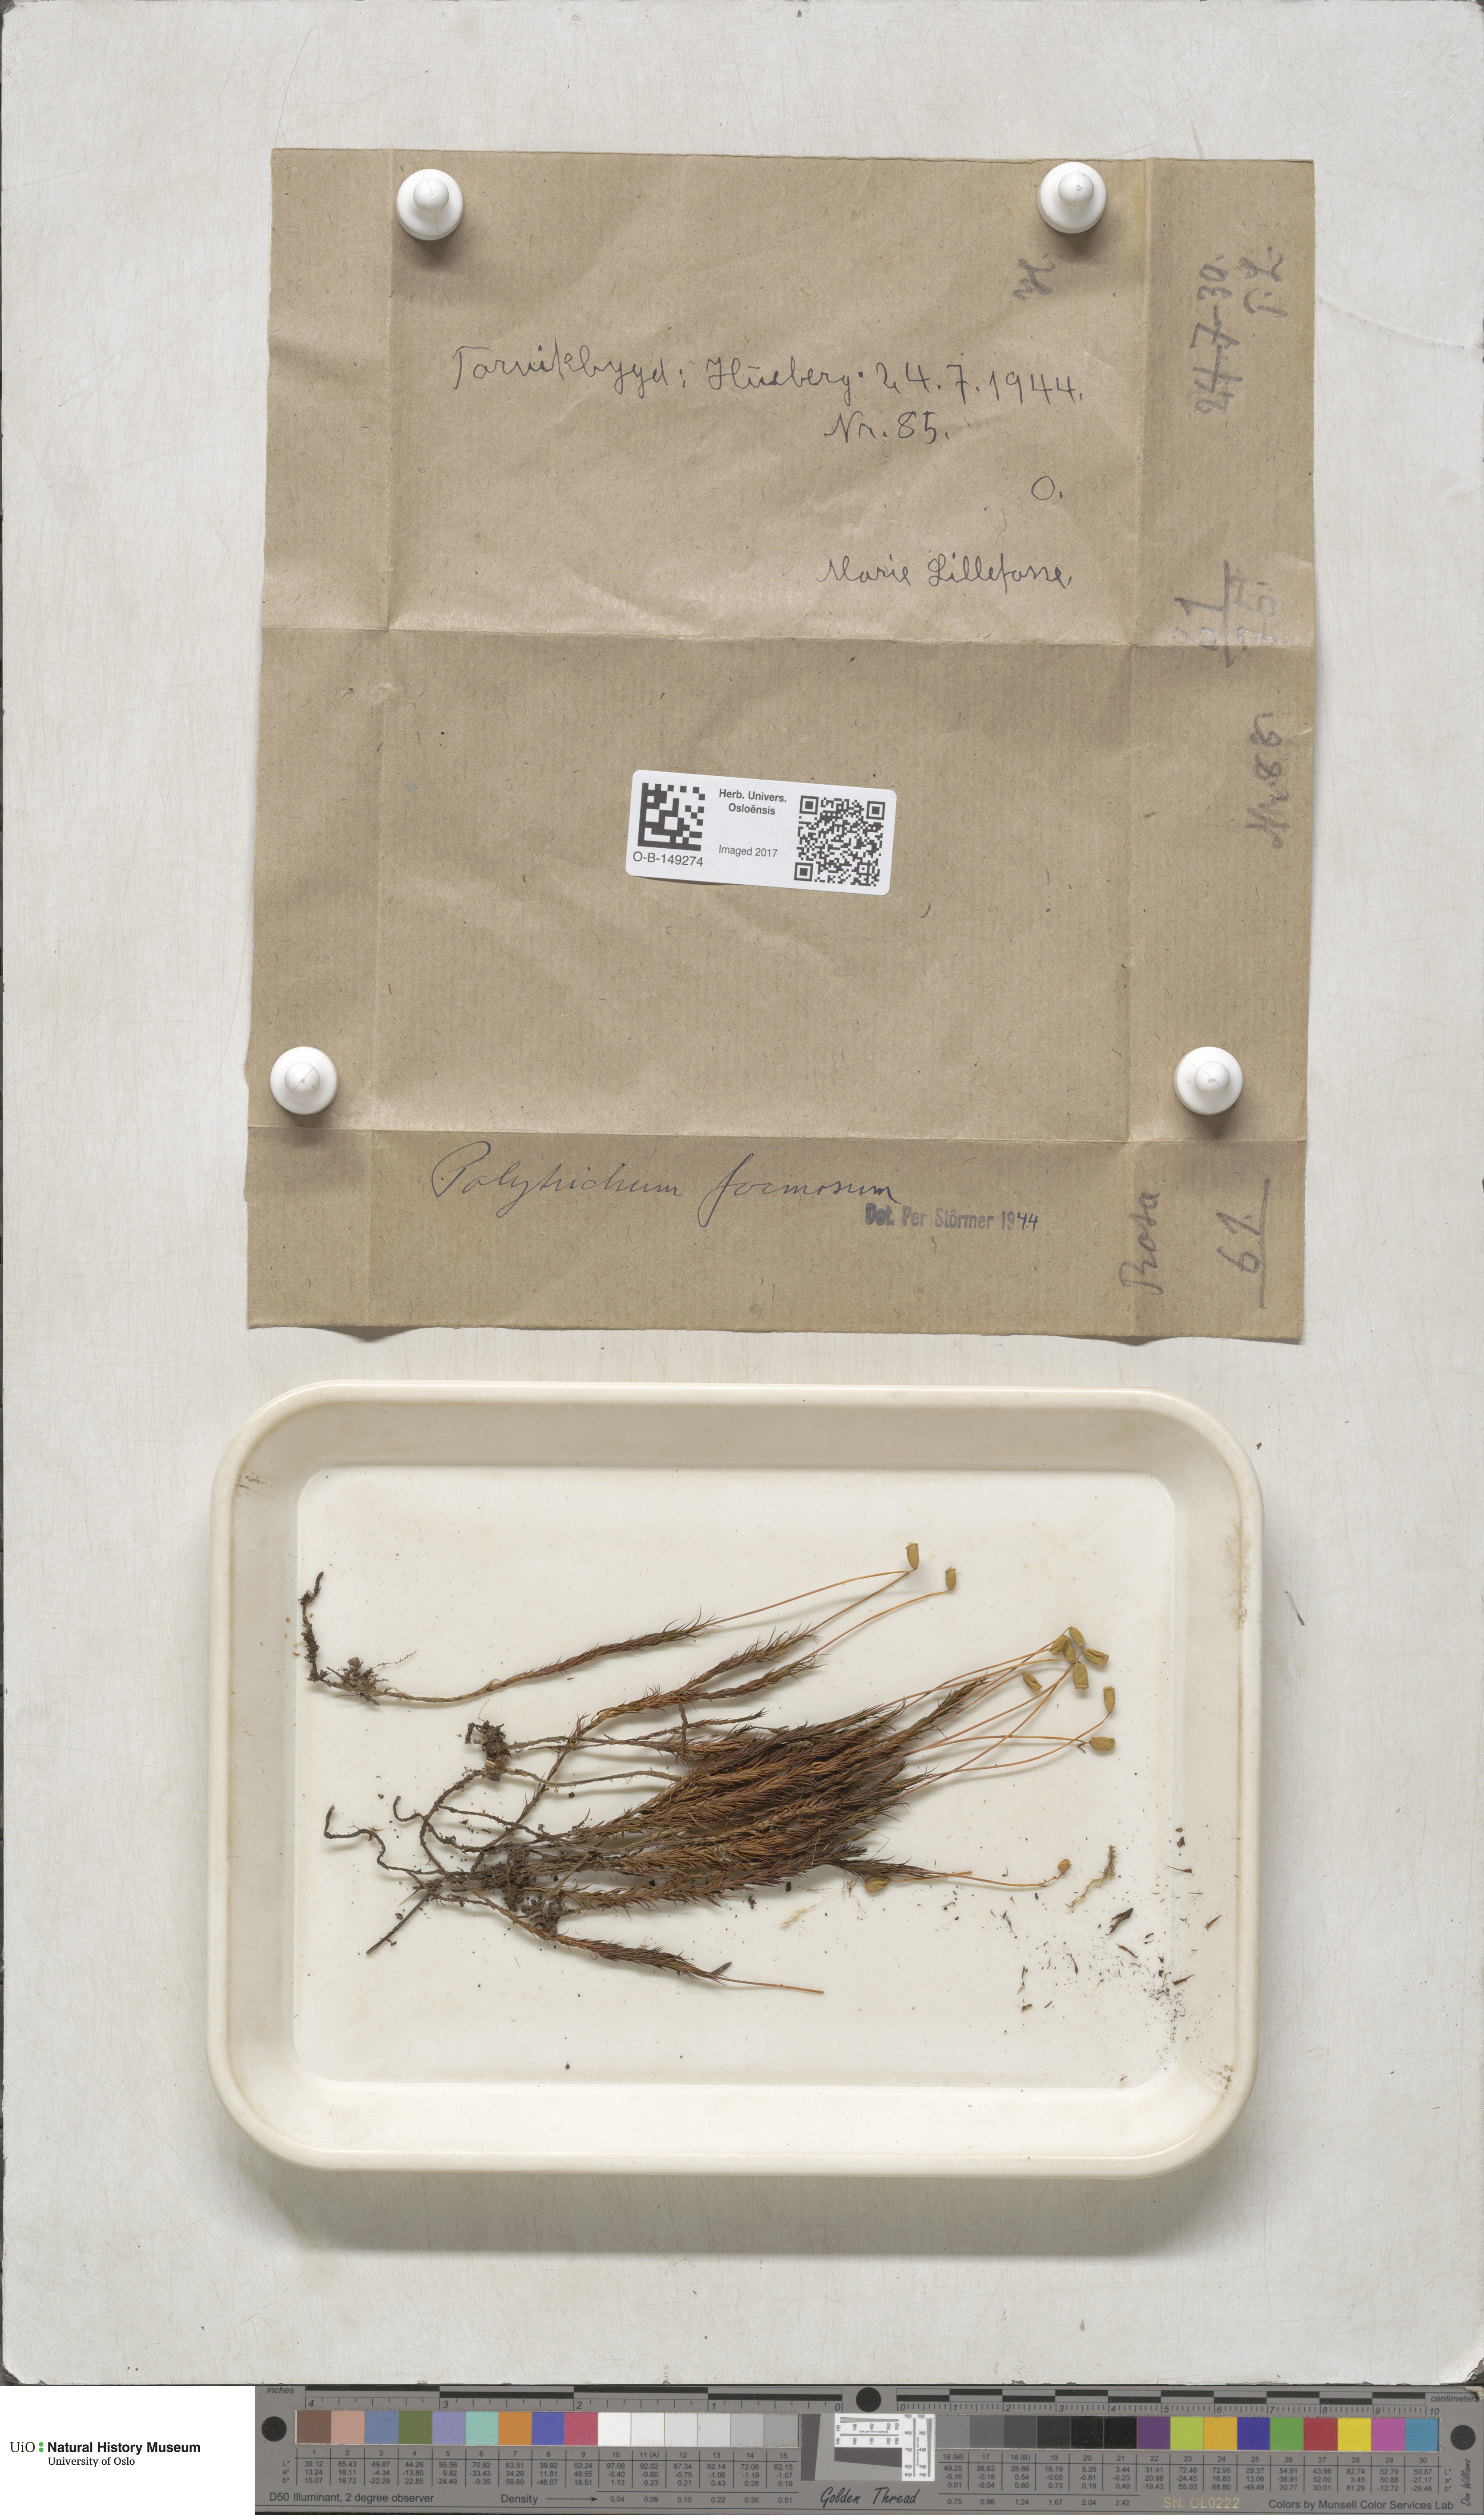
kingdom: Plantae
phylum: Bryophyta
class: Polytrichopsida
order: Polytrichales
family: Polytrichaceae
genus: Polytrichum
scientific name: Polytrichum formosum
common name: Bank haircap moss
